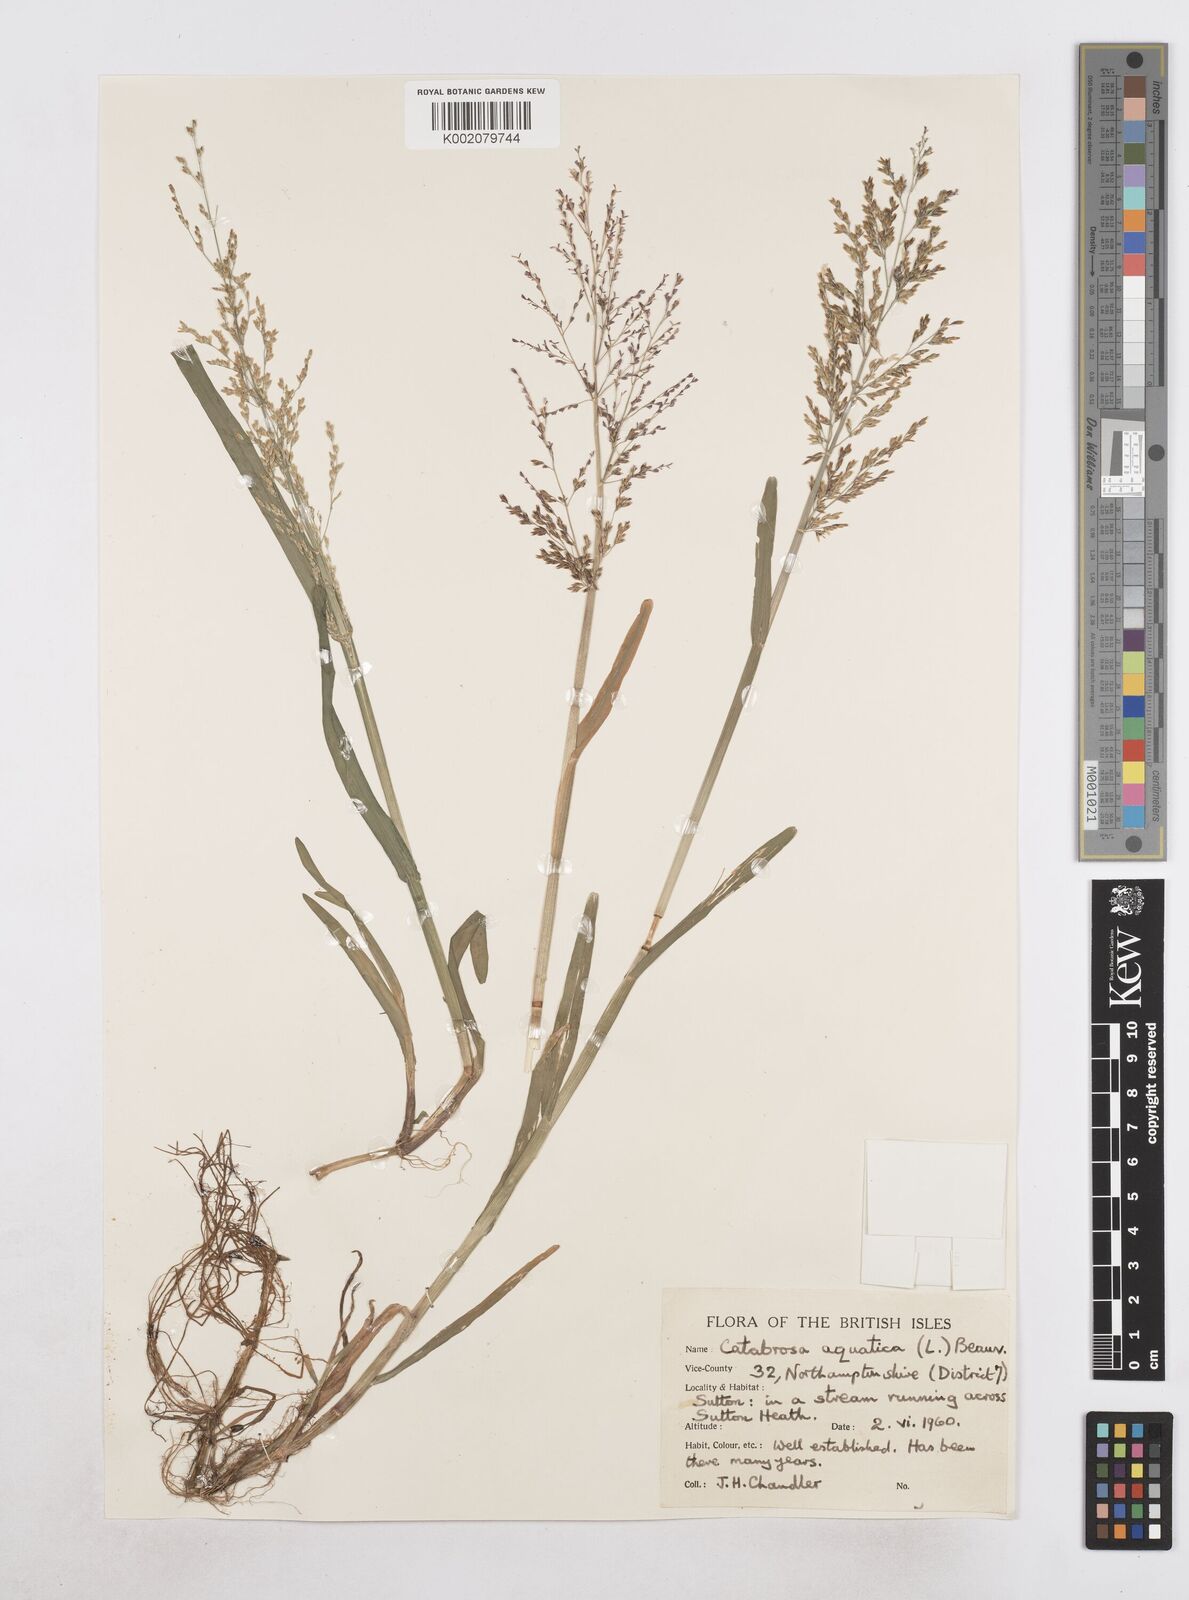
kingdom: Plantae
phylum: Tracheophyta
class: Liliopsida
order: Poales
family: Poaceae
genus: Catabrosa
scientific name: Catabrosa aquatica
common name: Whorl-grass
